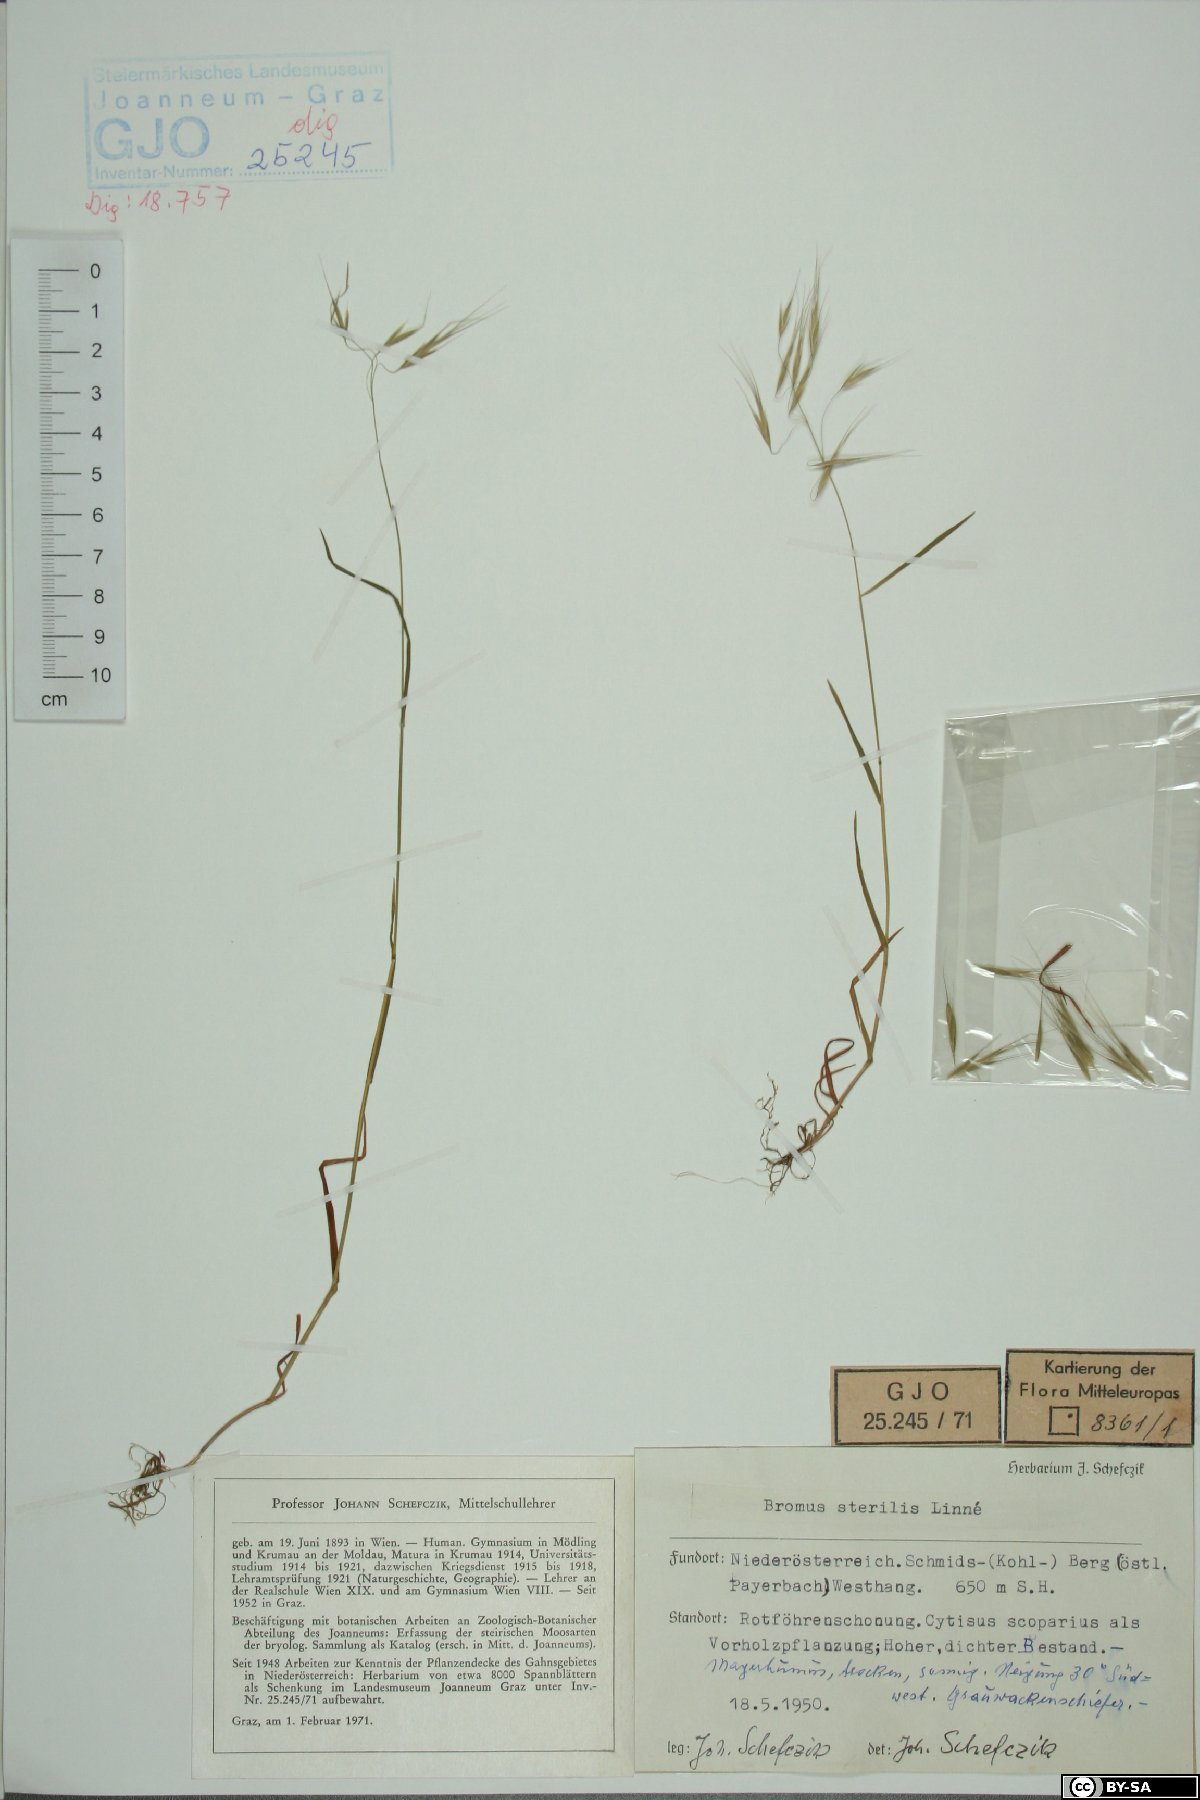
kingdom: Plantae
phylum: Tracheophyta
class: Liliopsida
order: Poales
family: Poaceae
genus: Bromus
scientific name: Bromus sterilis
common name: Poverty brome
